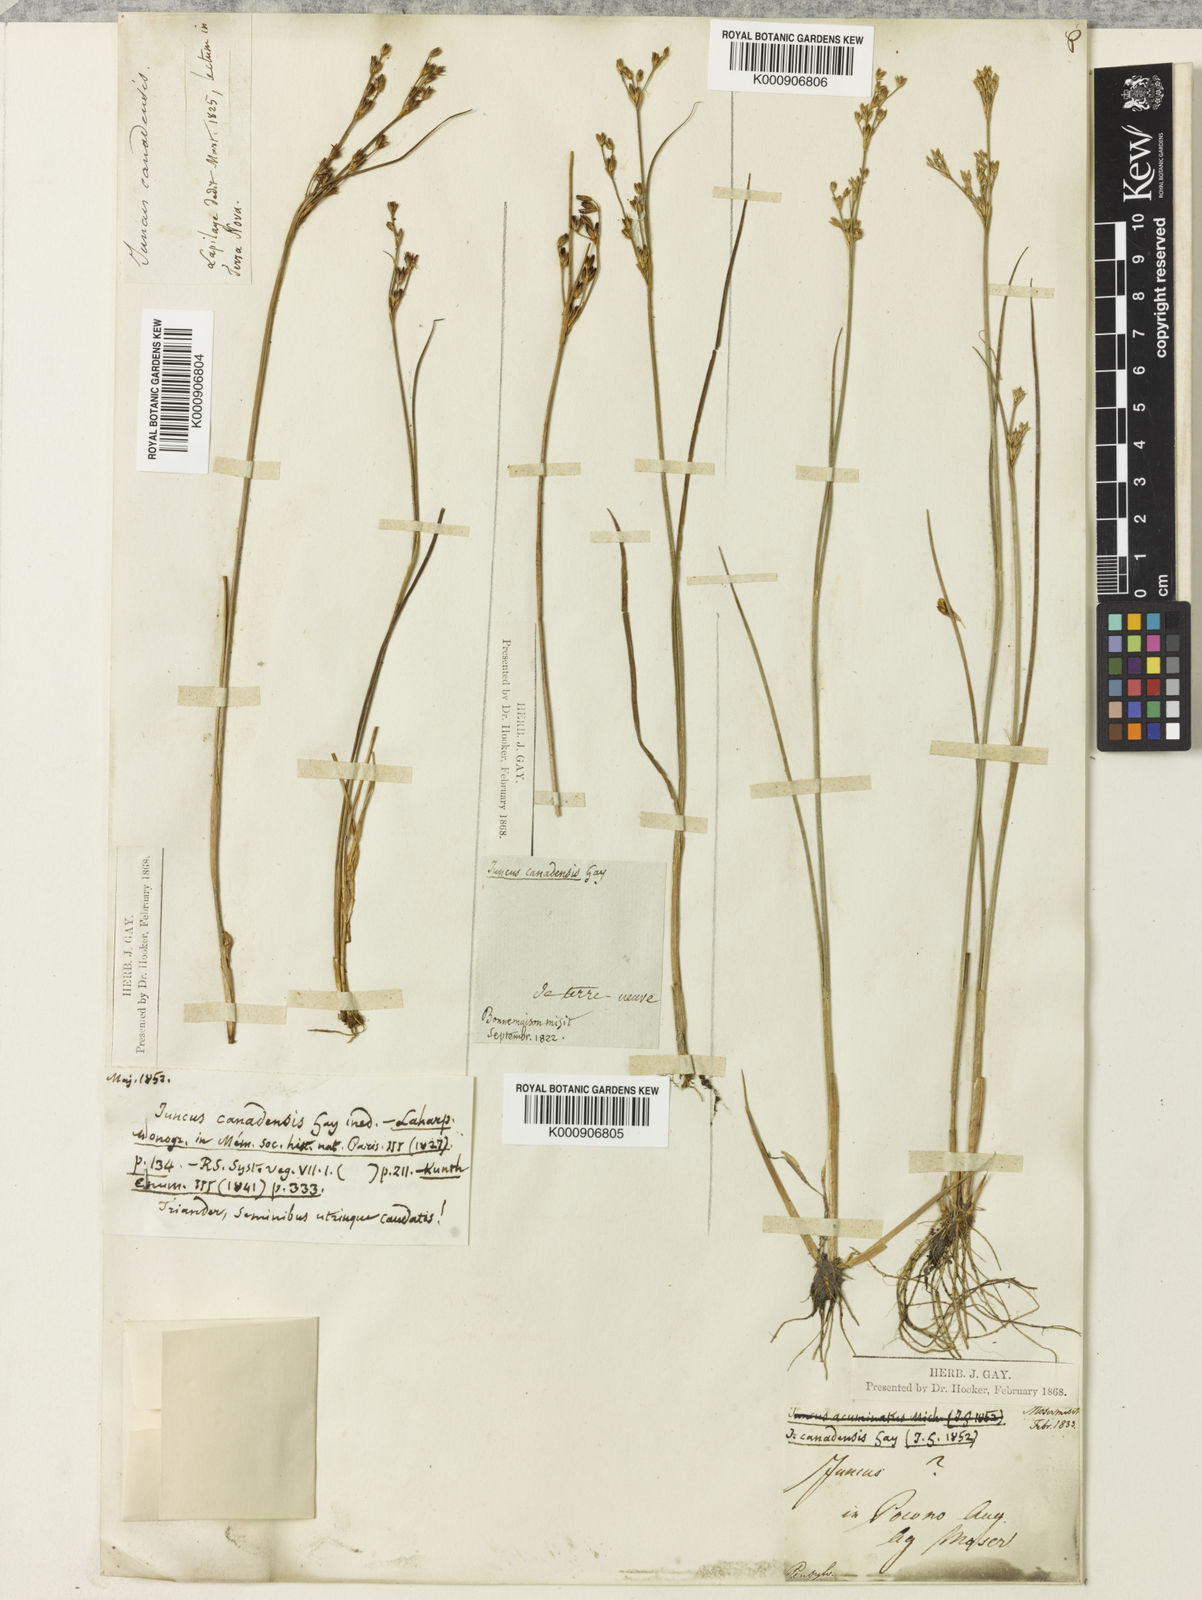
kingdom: Plantae
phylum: Tracheophyta
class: Liliopsida
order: Poales
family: Juncaceae
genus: Juncus
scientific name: Juncus
